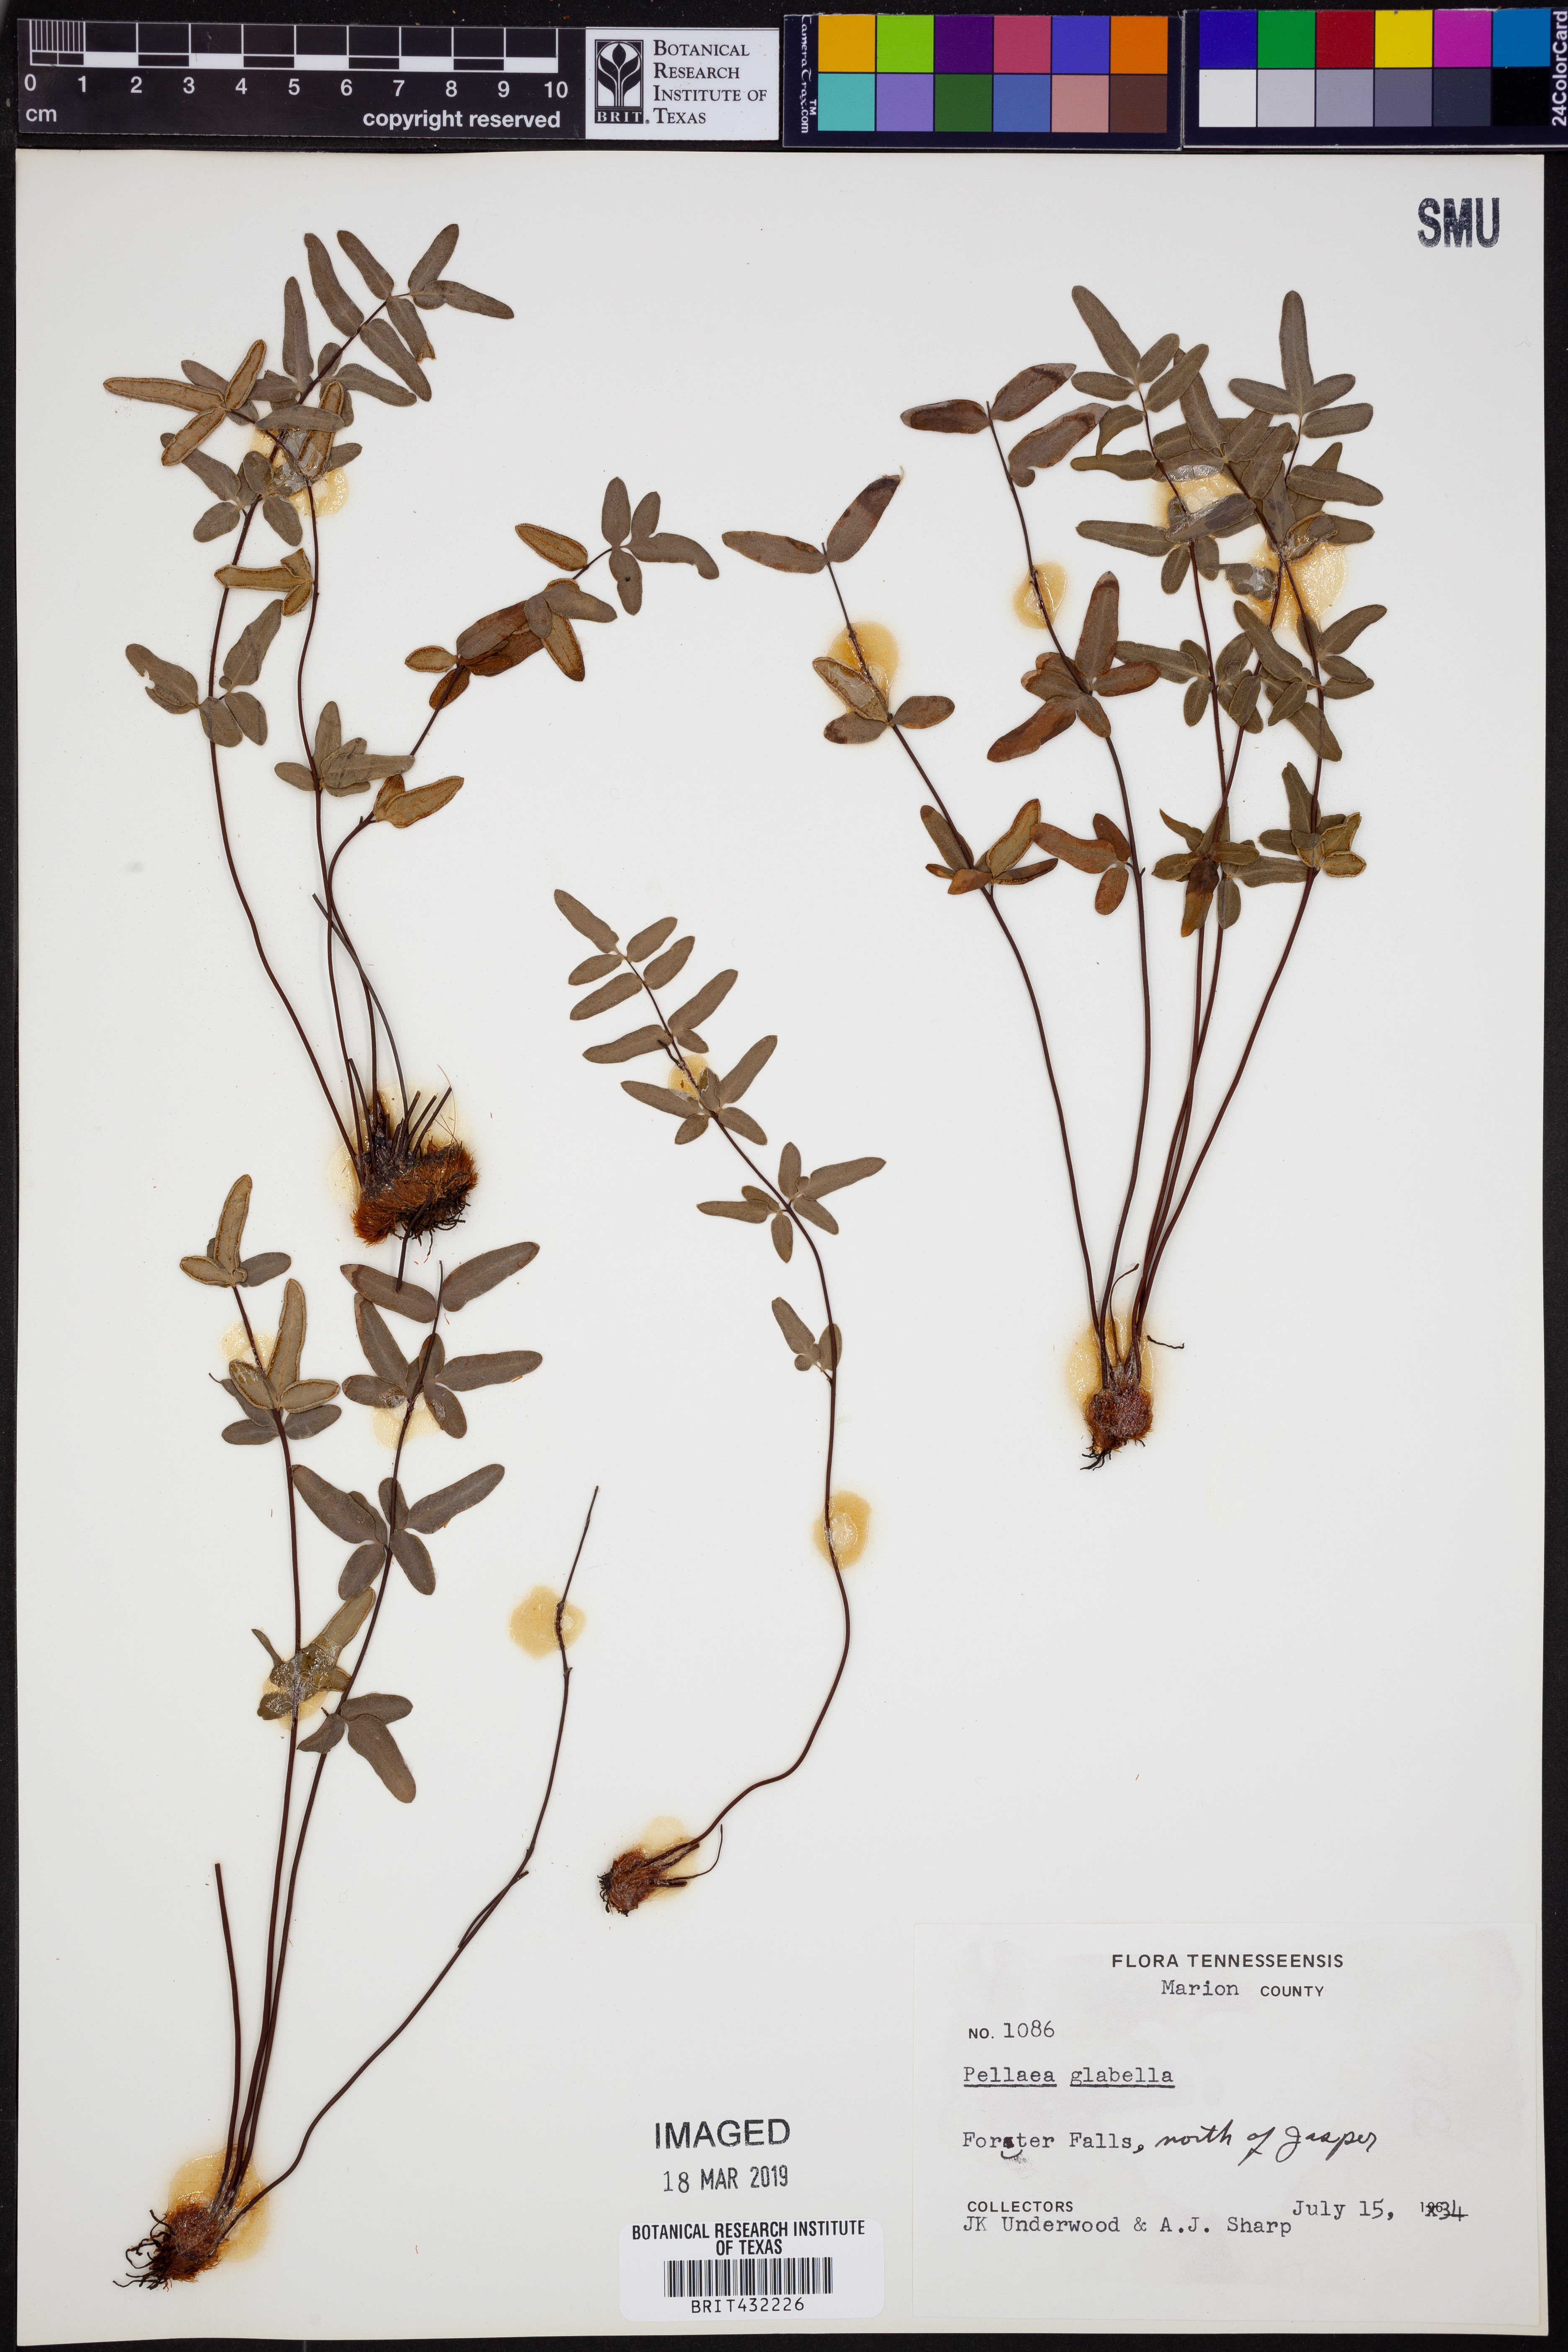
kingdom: Plantae
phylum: Tracheophyta
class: Polypodiopsida
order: Polypodiales
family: Pteridaceae
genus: Pellaea
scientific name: Pellaea glabella
